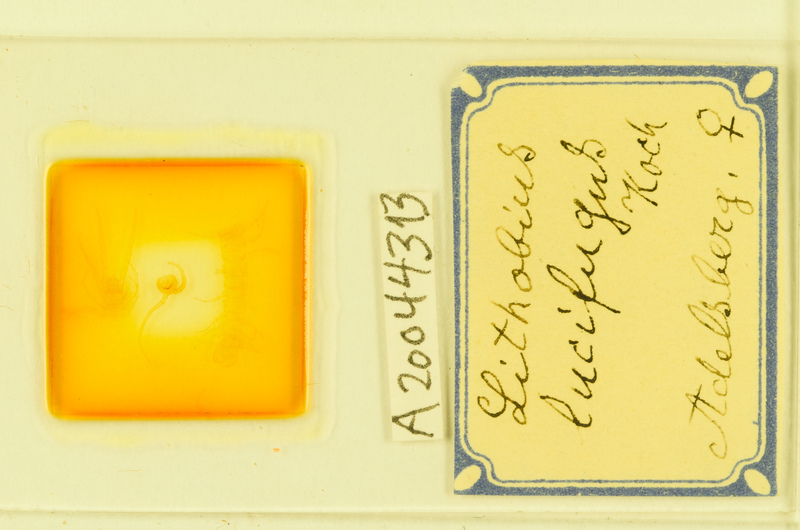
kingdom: Animalia
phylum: Arthropoda
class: Chilopoda
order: Lithobiomorpha
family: Lithobiidae
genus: Lithobius
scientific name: Lithobius lucifugus
